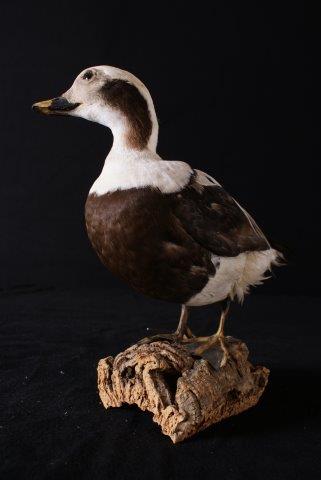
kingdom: Animalia
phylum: Chordata
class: Aves
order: Anseriformes
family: Anatidae
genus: Clangula
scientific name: Clangula hyemalis
